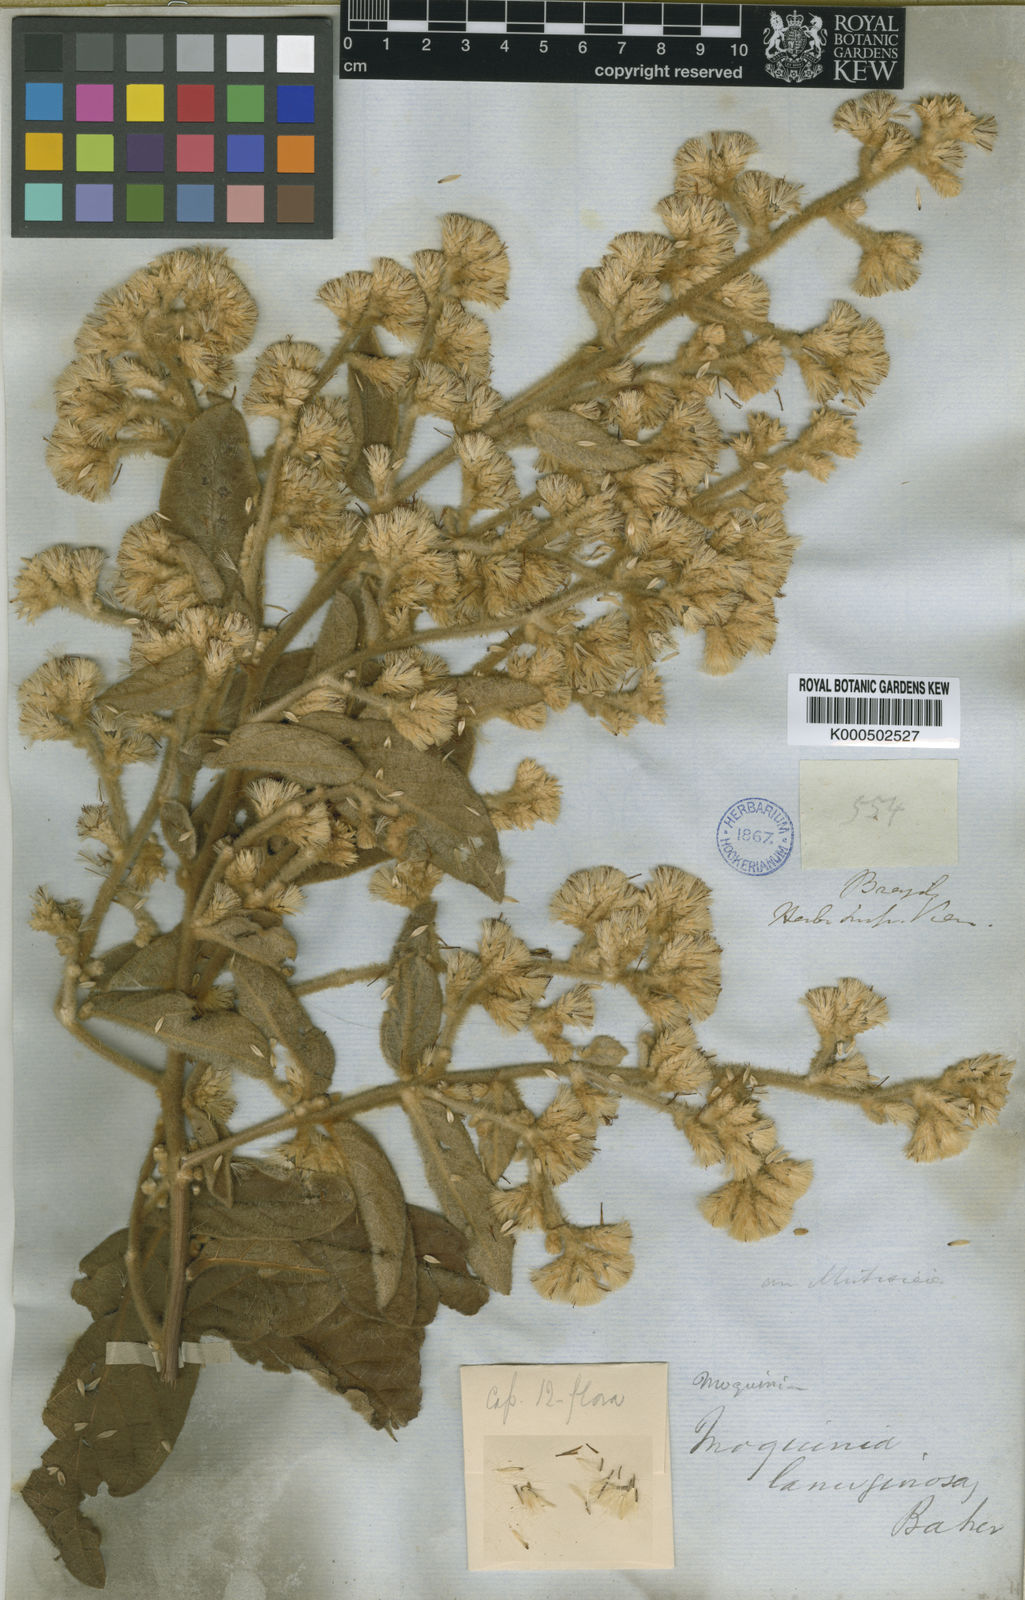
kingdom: Plantae
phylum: Tracheophyta
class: Magnoliopsida
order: Asterales
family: Asteraceae
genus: Moquiniastrum
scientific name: Moquiniastrum paniculatum
